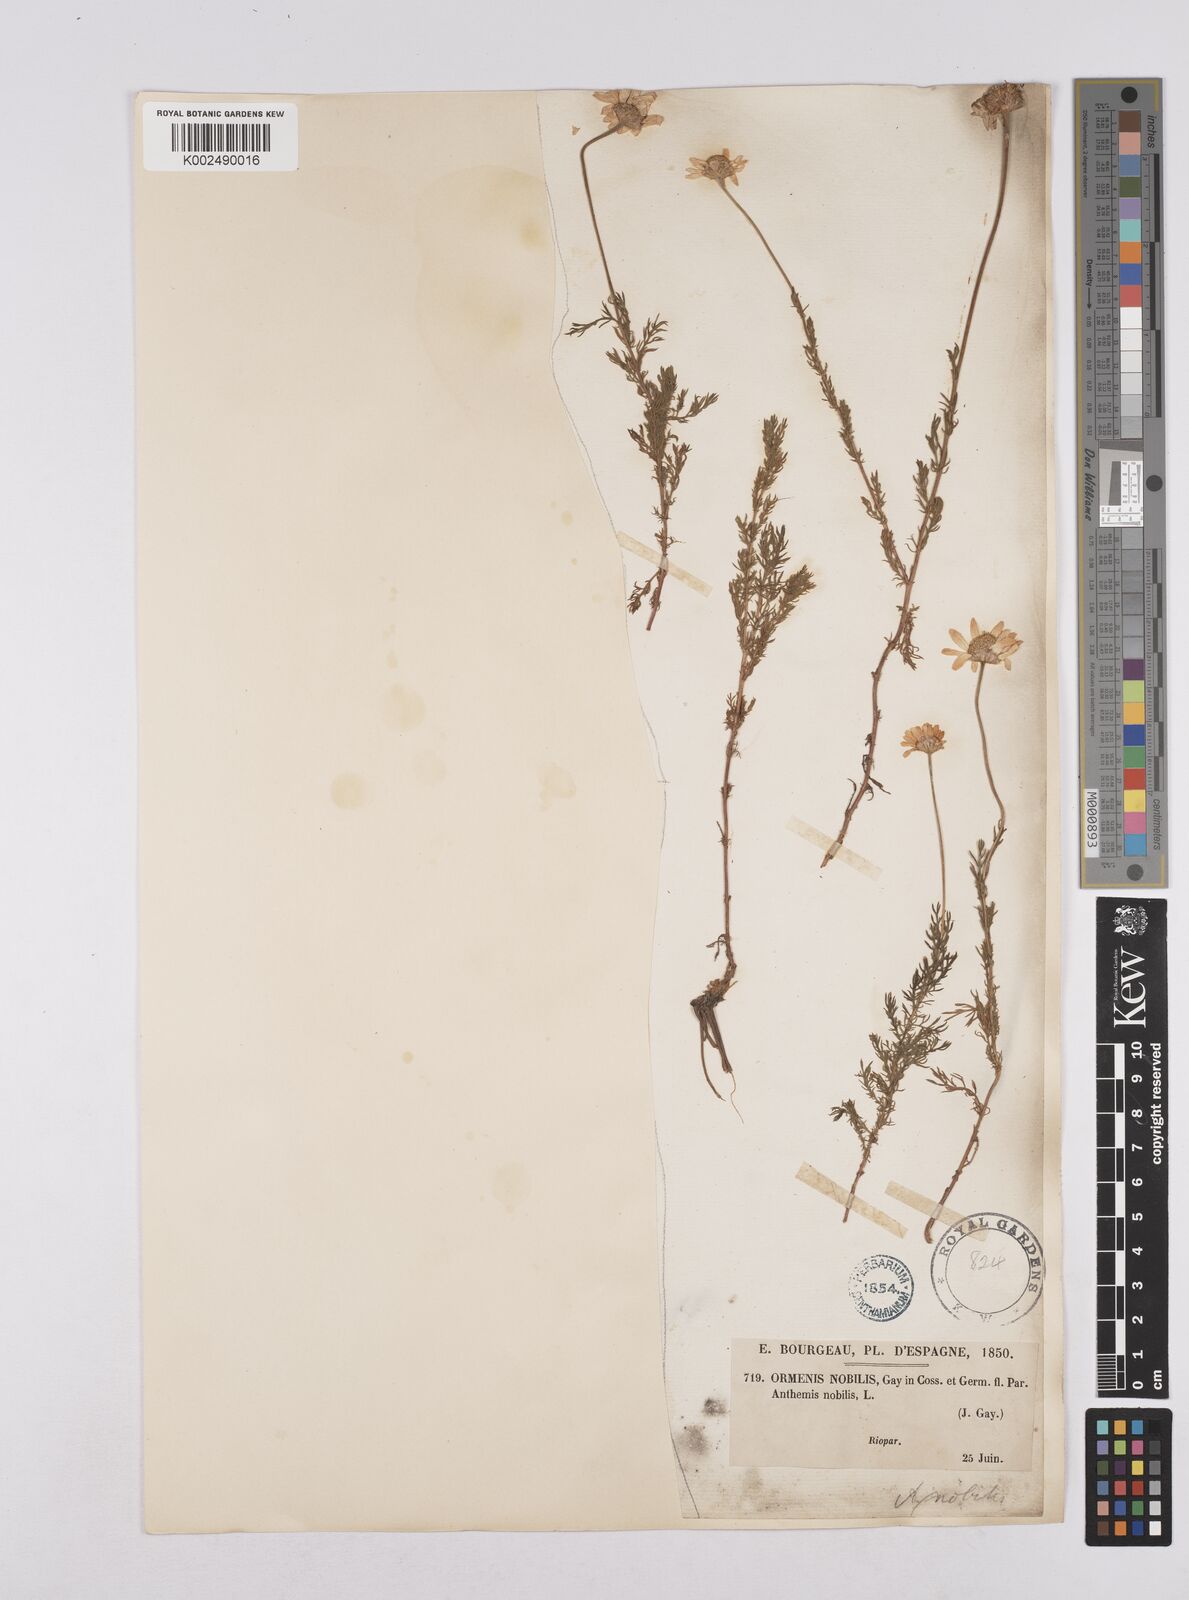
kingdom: Plantae
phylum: Tracheophyta
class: Magnoliopsida
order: Asterales
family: Asteraceae
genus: Chamaemelum
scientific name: Chamaemelum
